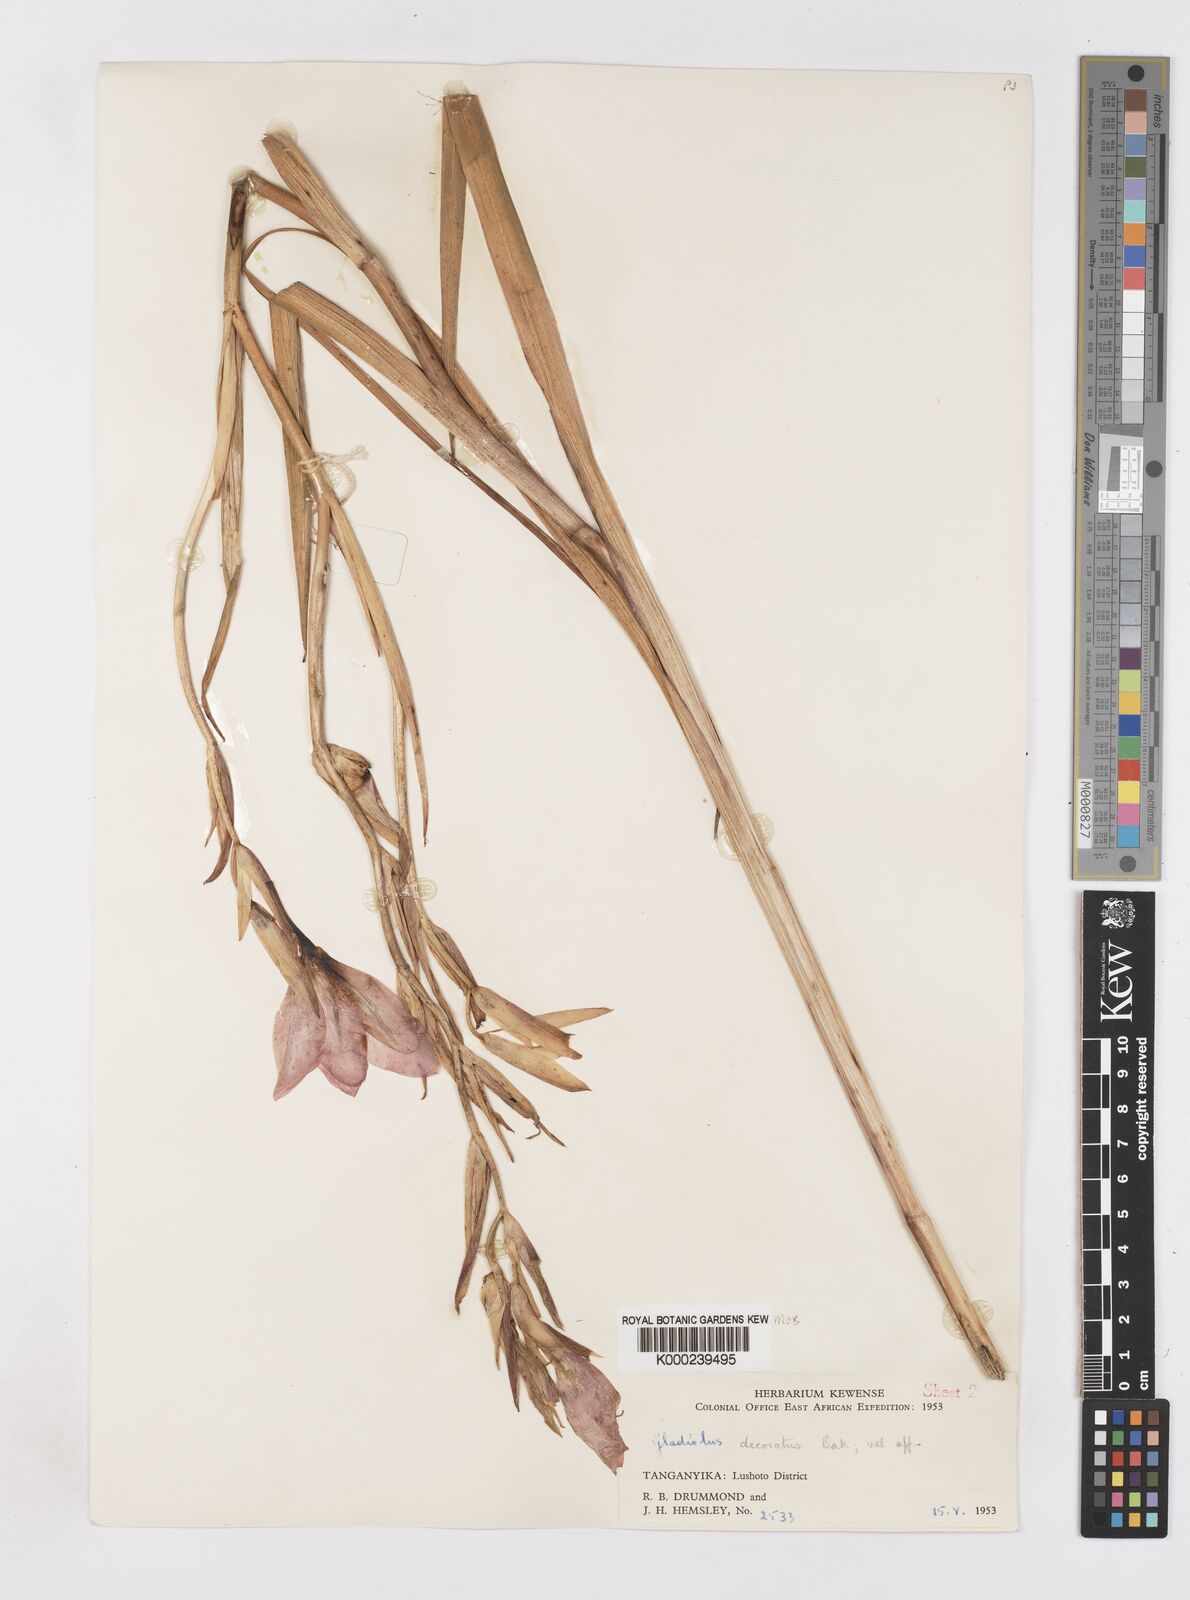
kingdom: Plantae
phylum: Tracheophyta
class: Liliopsida
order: Asparagales
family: Iridaceae
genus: Gladiolus
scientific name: Gladiolus rupicola
